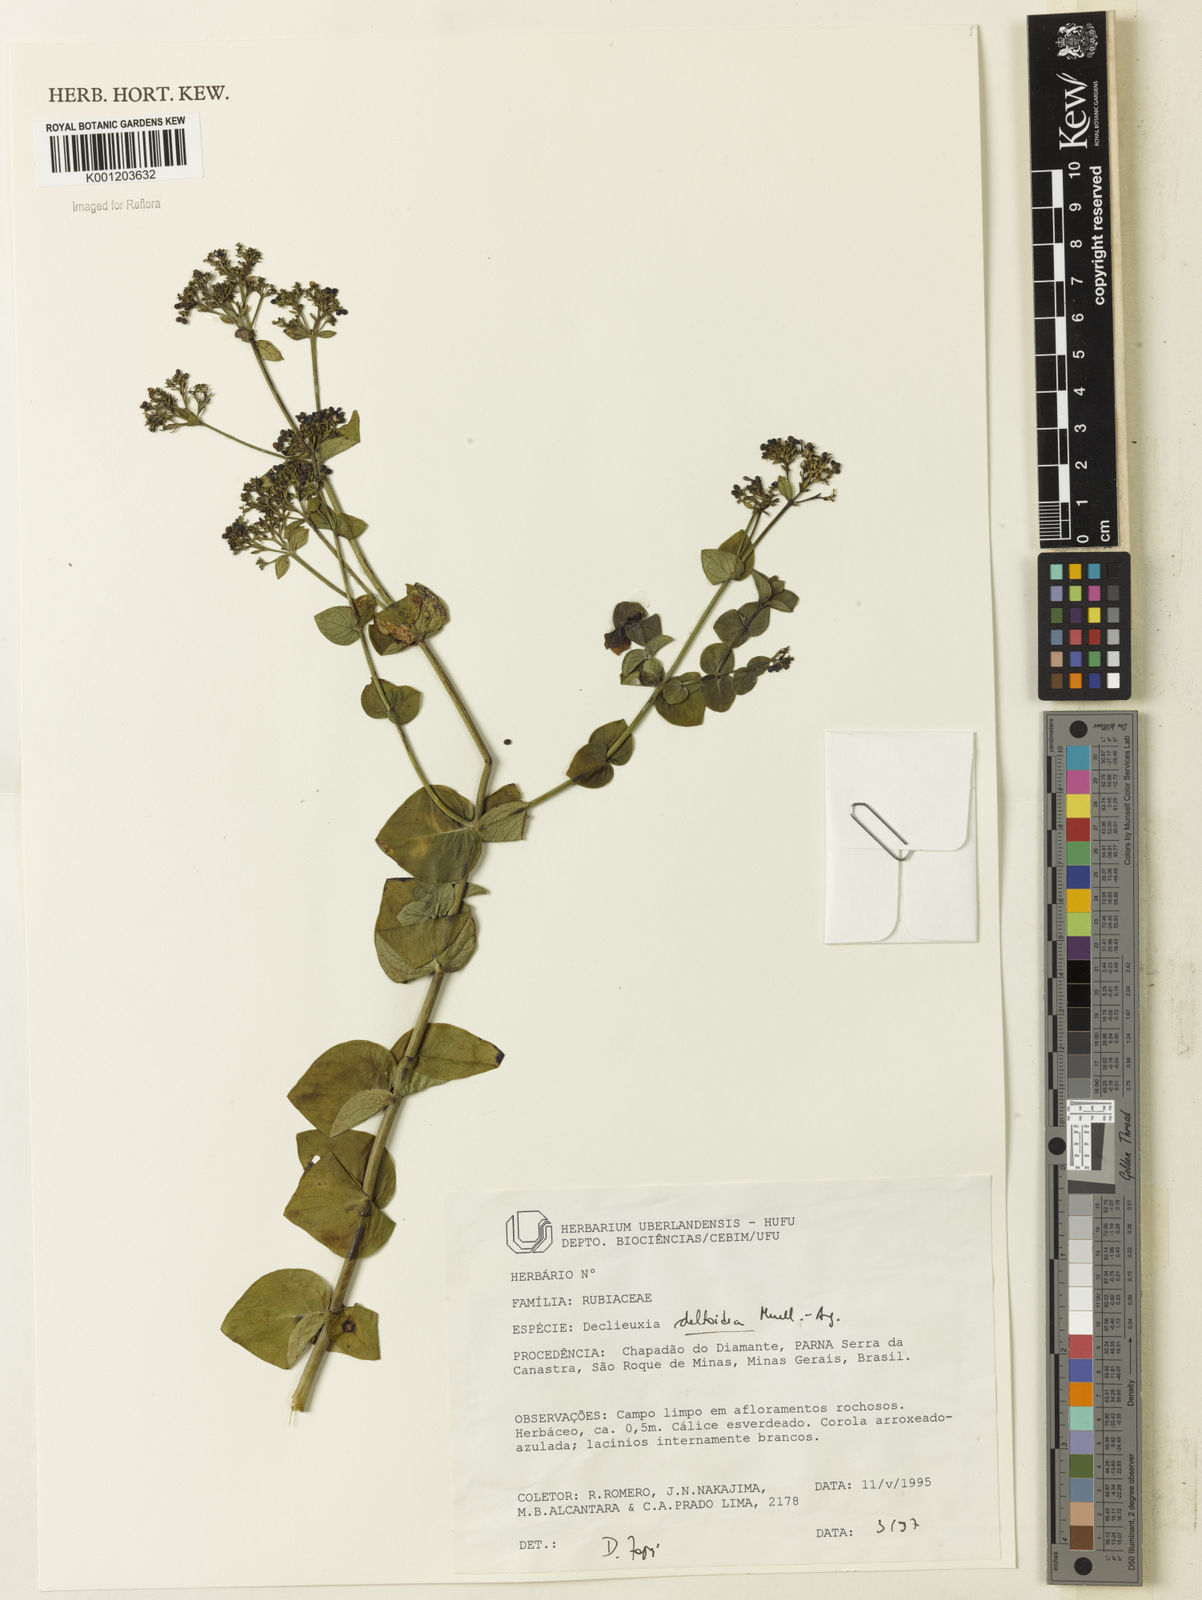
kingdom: Plantae
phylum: Tracheophyta
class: Magnoliopsida
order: Gentianales
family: Rubiaceae
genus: Declieuxia
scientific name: Declieuxia
